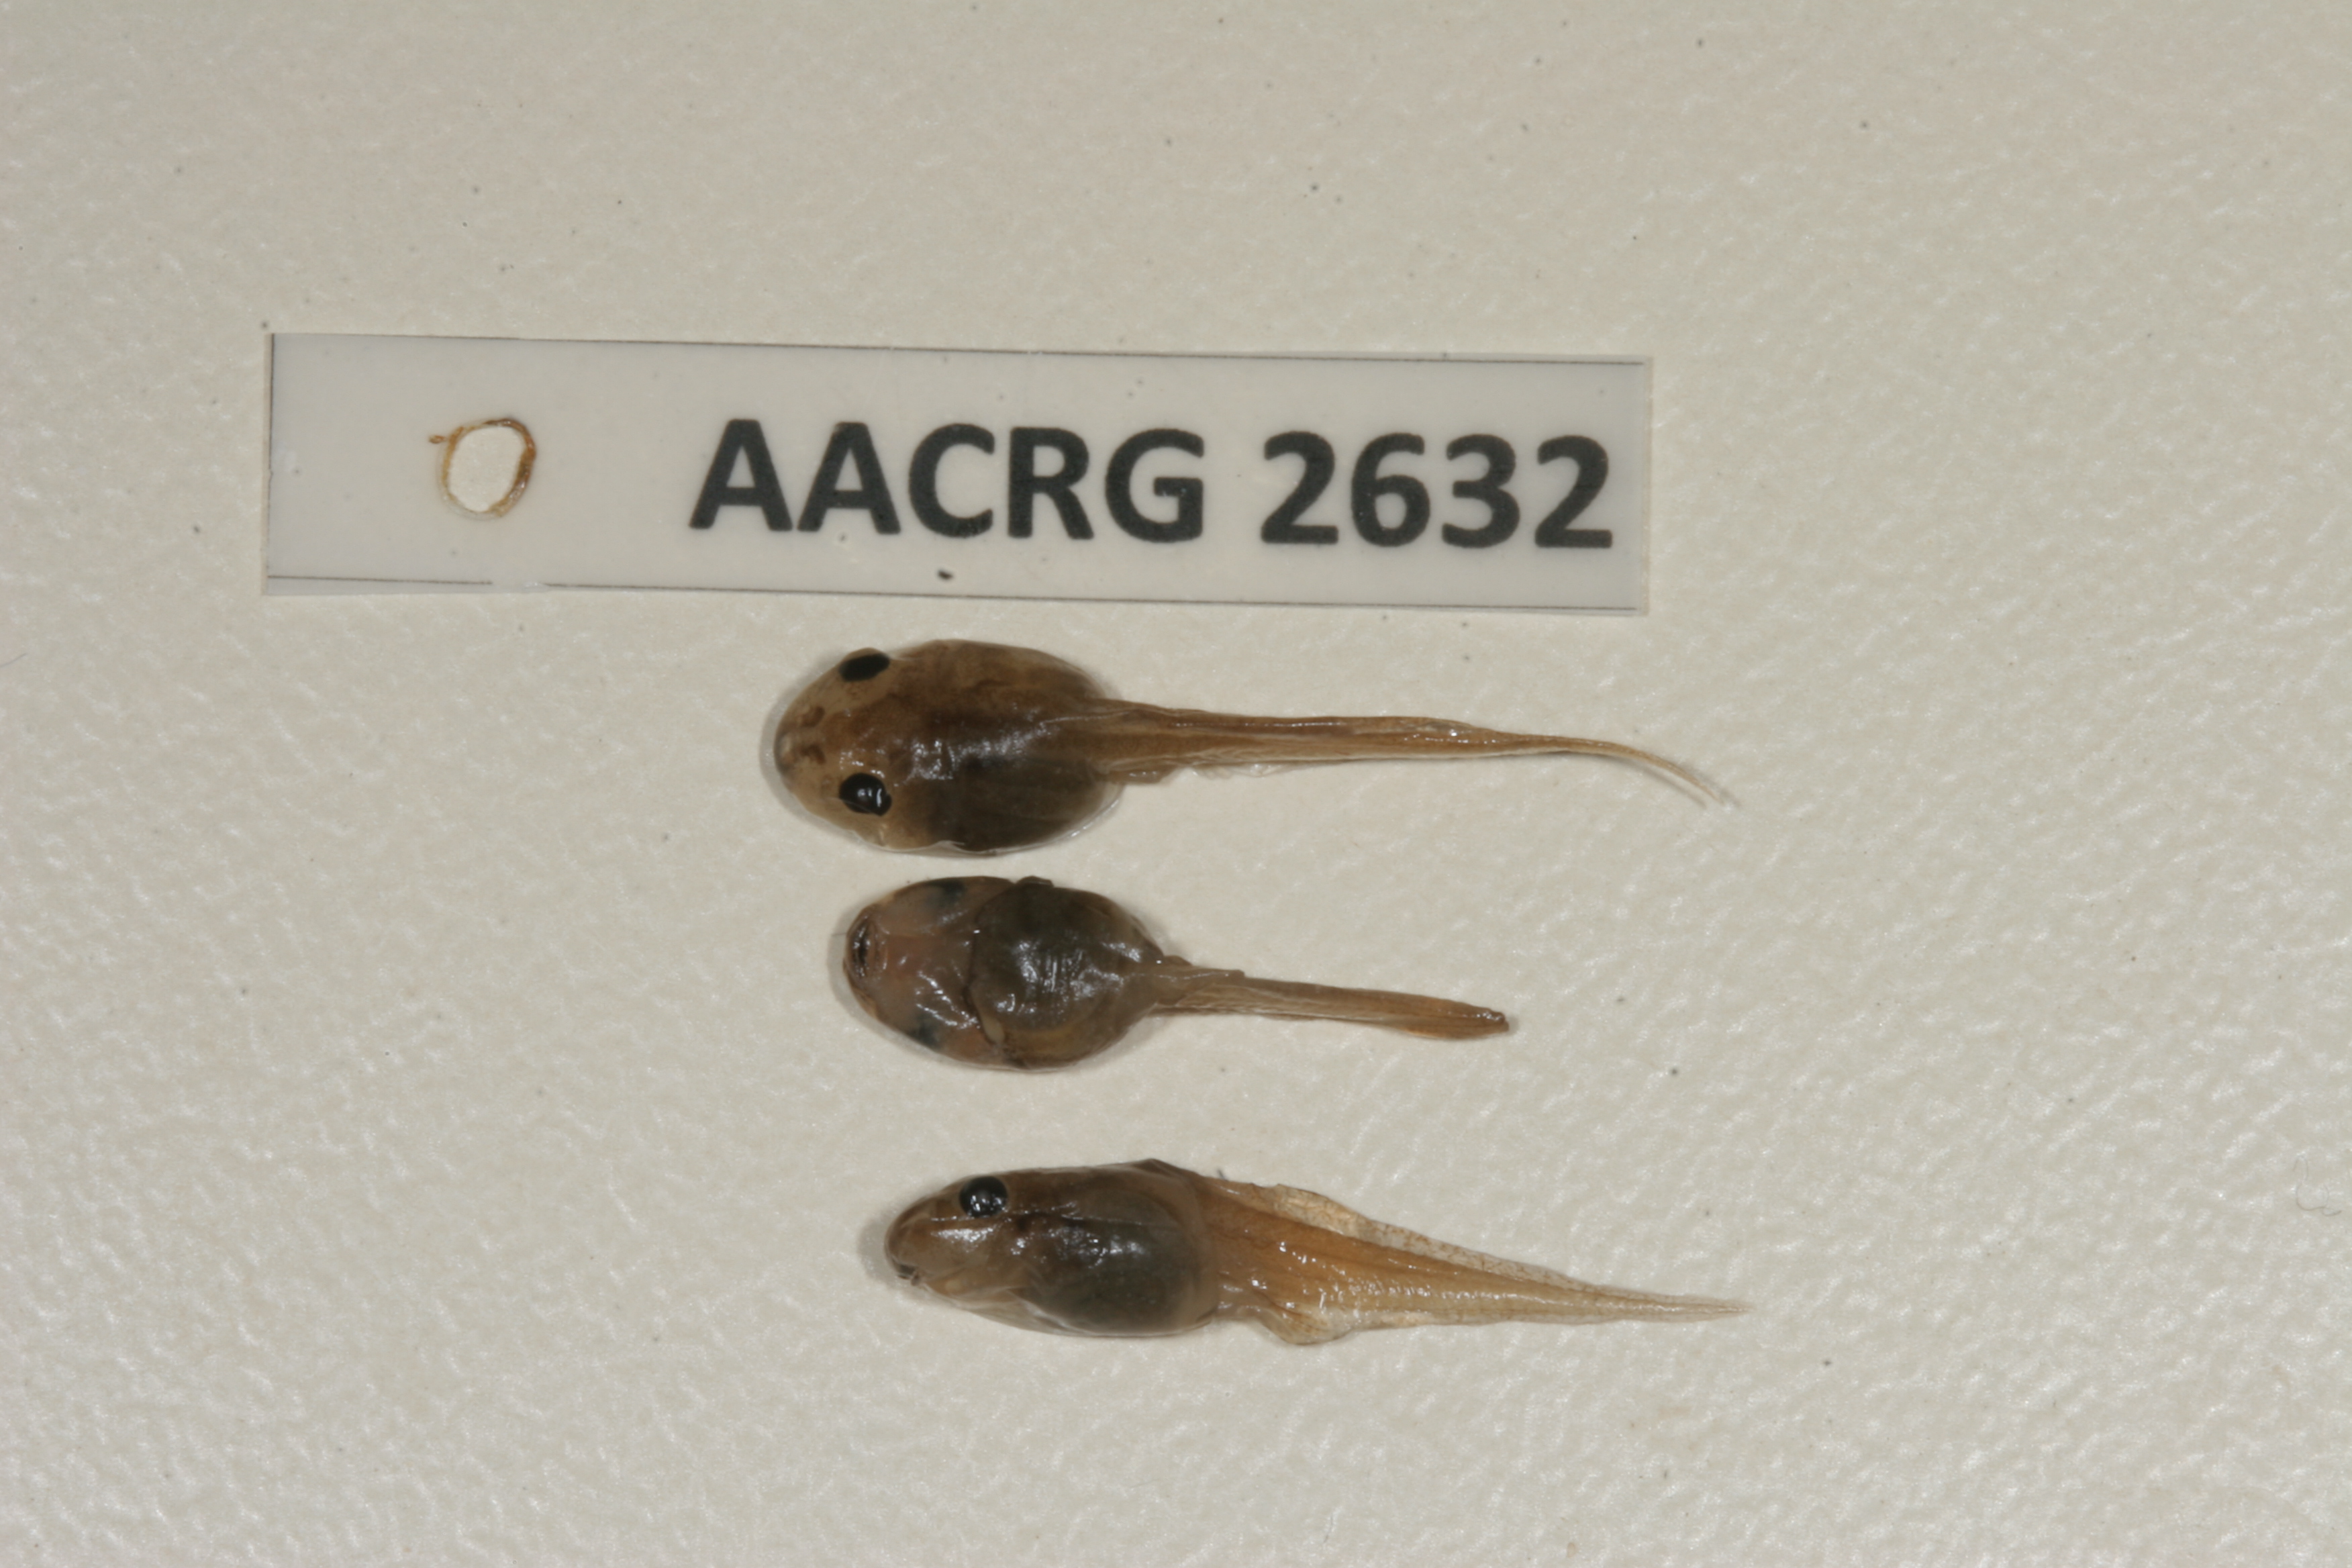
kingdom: Animalia
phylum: Chordata
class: Amphibia
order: Anura
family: Pyxicephalidae
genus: Cacosternum
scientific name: Cacosternum nanum
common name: Bronze dainty frog
